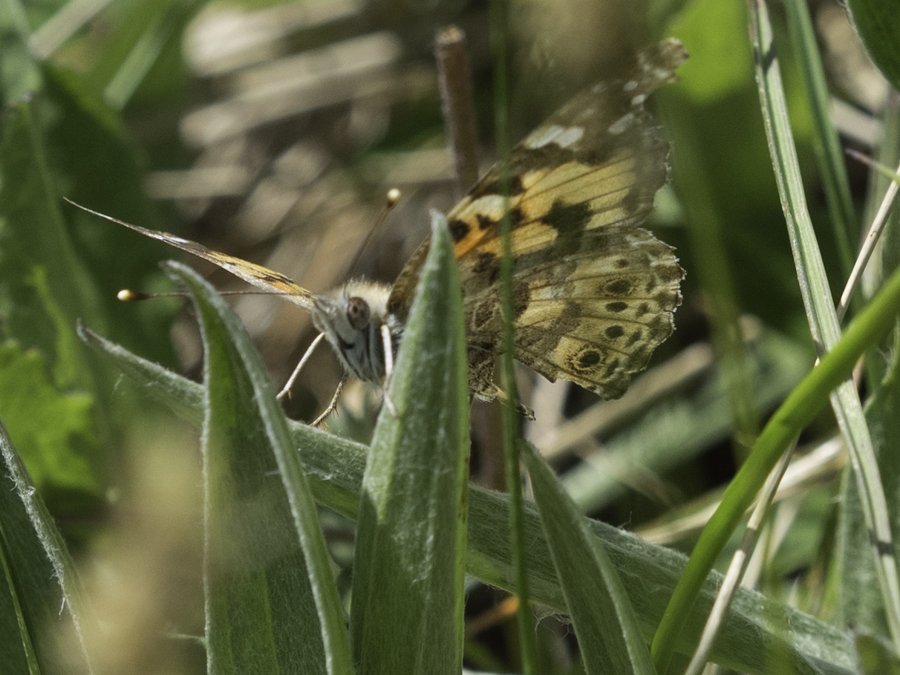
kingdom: Animalia
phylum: Arthropoda
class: Insecta
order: Lepidoptera
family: Nymphalidae
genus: Vanessa
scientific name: Vanessa cardui
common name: Painted Lady
